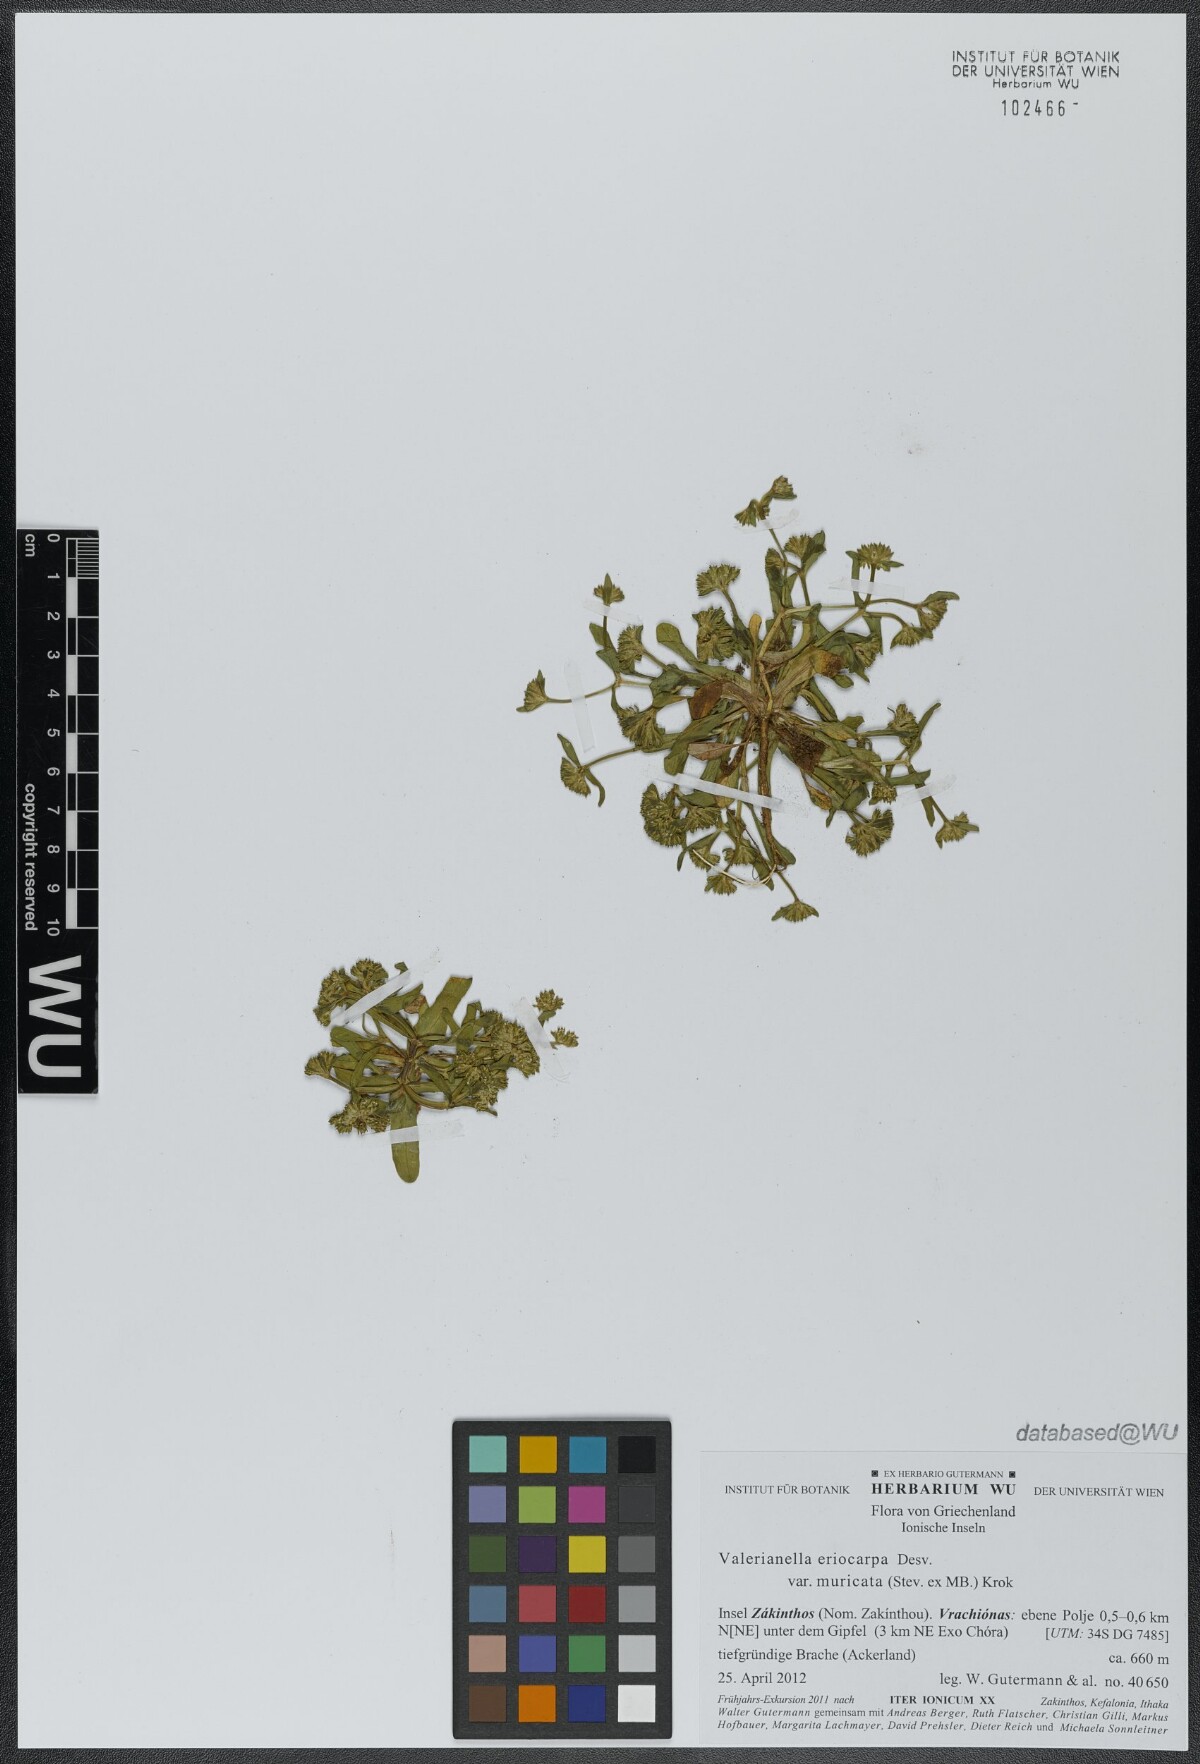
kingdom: Plantae
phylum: Tracheophyta
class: Magnoliopsida
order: Dipsacales
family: Caprifoliaceae
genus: Valerianella
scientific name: Valerianella eriocarpa
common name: Hairy-fruited cornsalad
